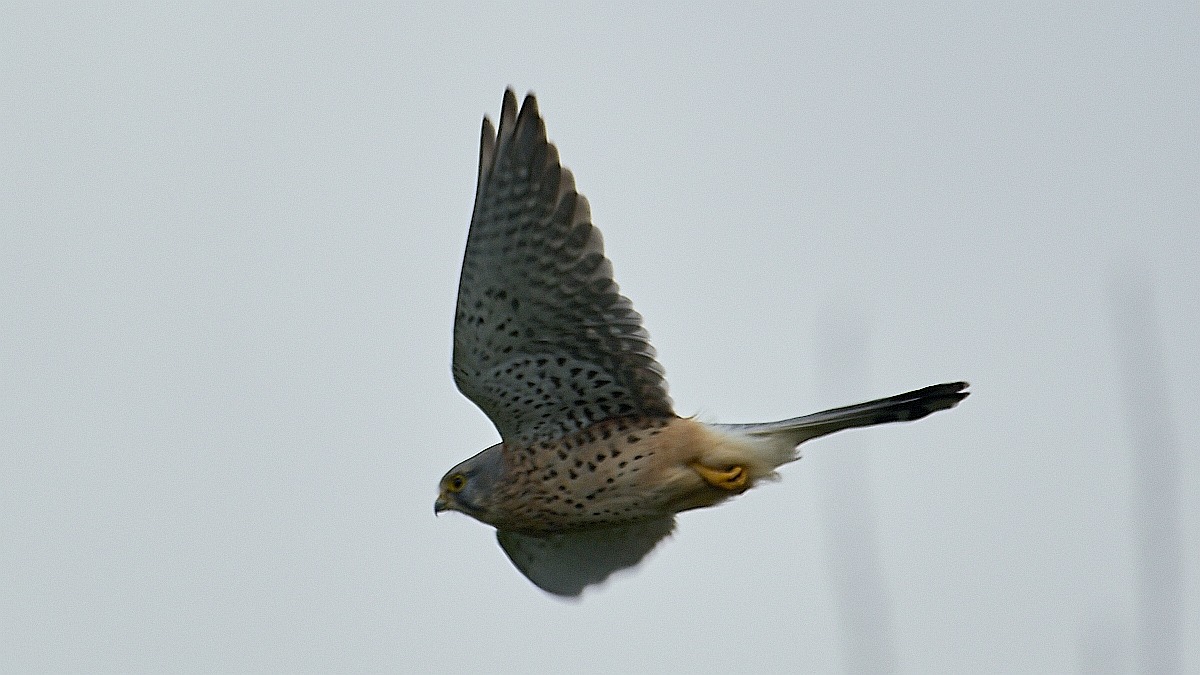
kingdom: Animalia
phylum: Chordata
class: Aves
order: Falconiformes
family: Falconidae
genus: Falco
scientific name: Falco tinnunculus
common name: Tårnfalk
